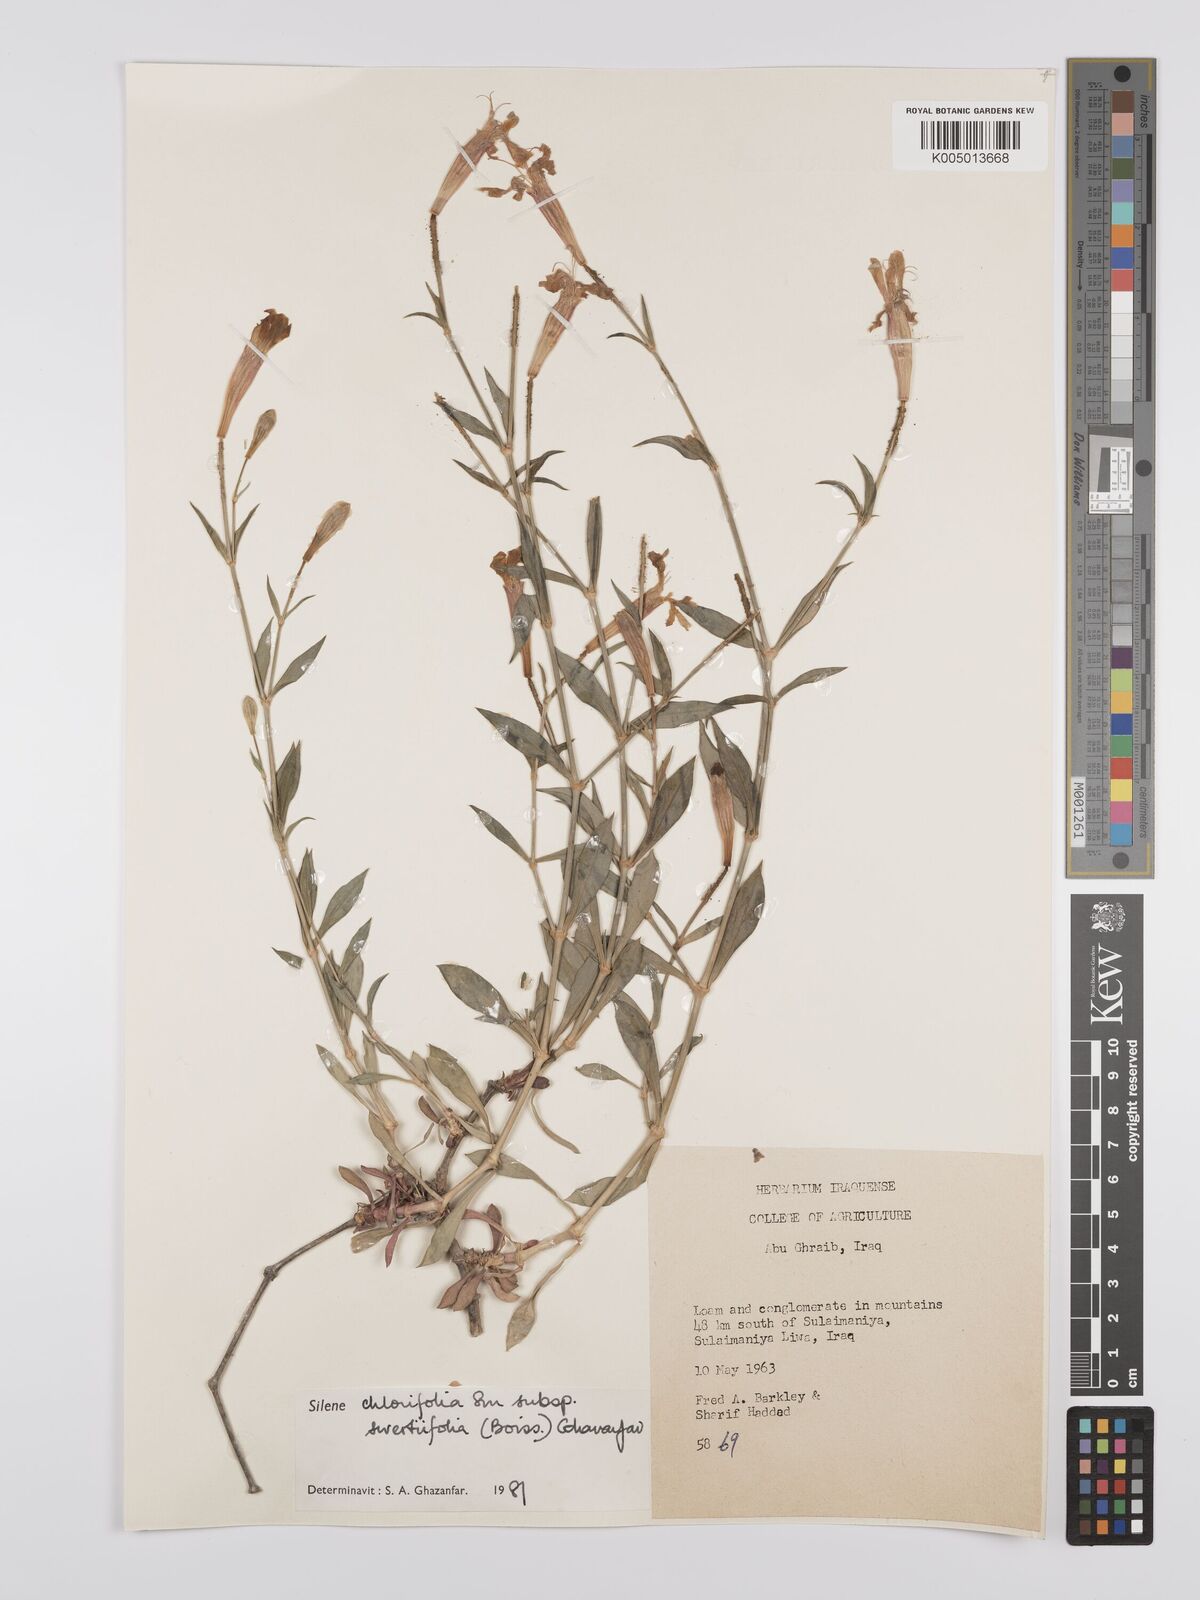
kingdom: Plantae
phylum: Tracheophyta
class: Magnoliopsida
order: Caryophyllales
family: Caryophyllaceae
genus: Silene
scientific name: Silene chlorifolia
